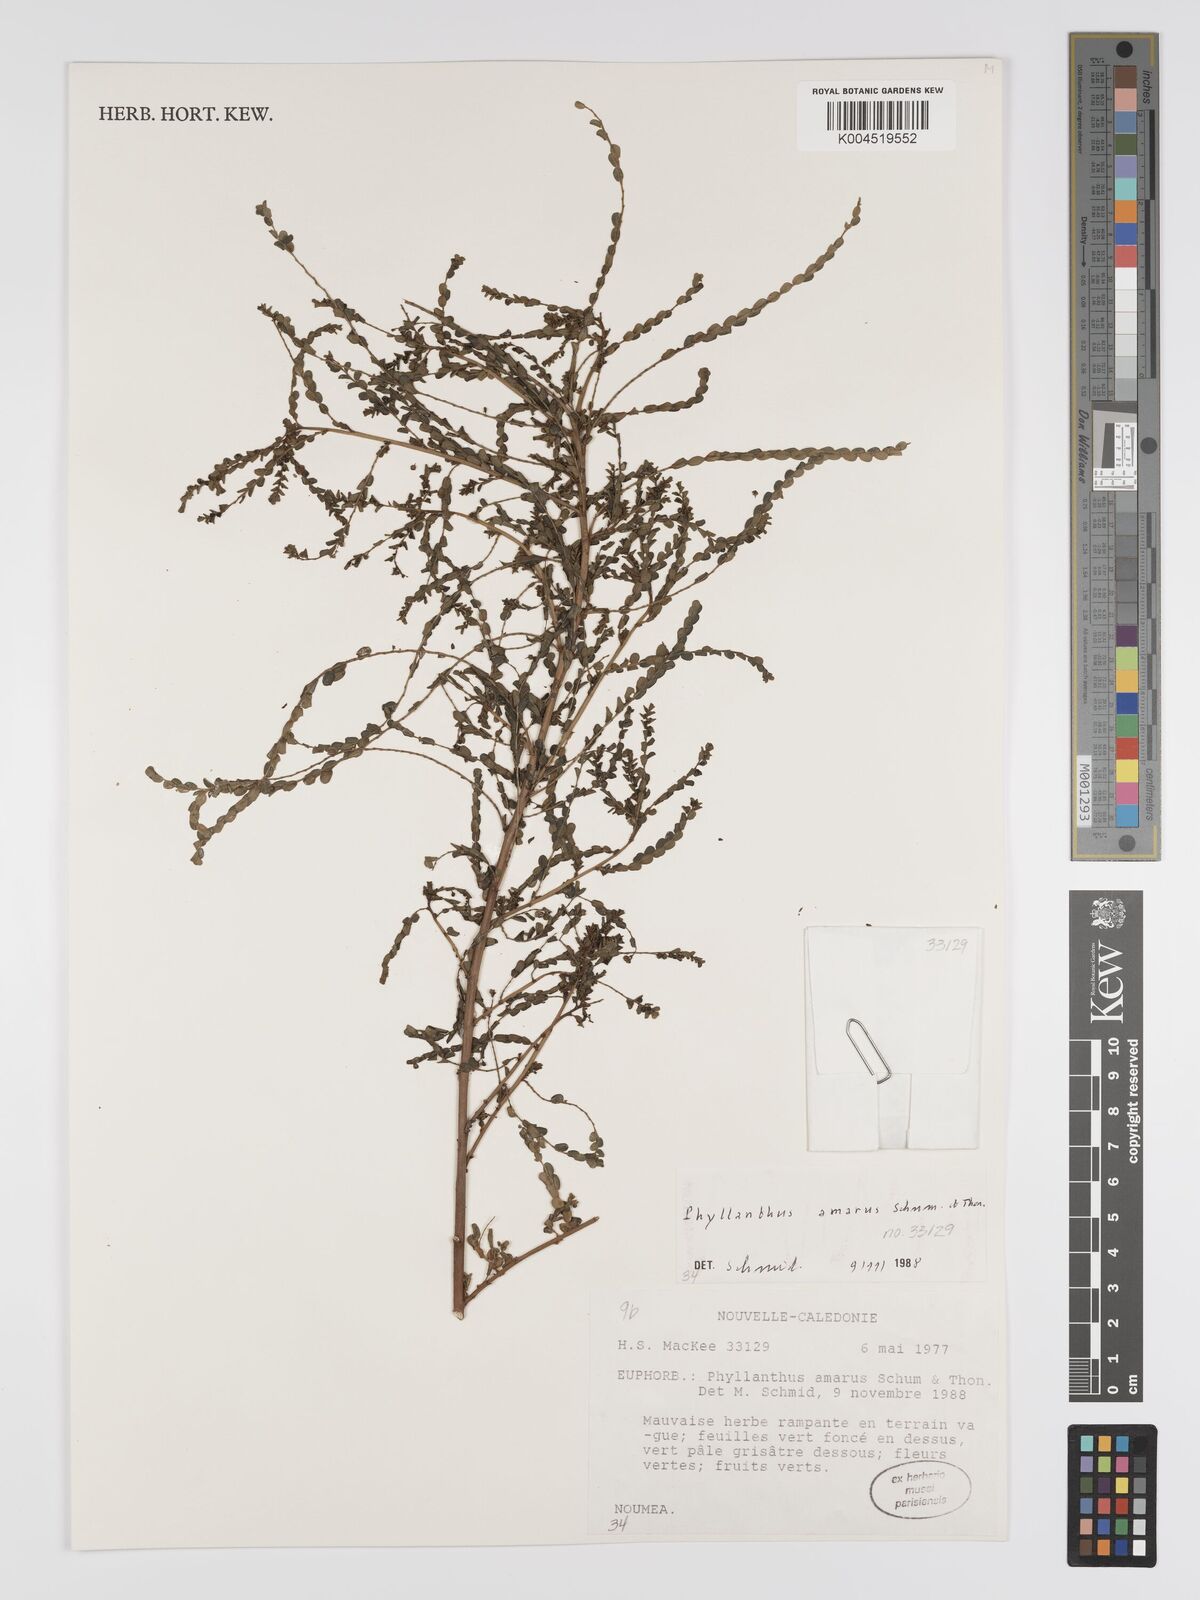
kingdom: Plantae
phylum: Tracheophyta
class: Magnoliopsida
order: Malpighiales
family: Phyllanthaceae
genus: Phyllanthus
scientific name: Phyllanthus aeneus
